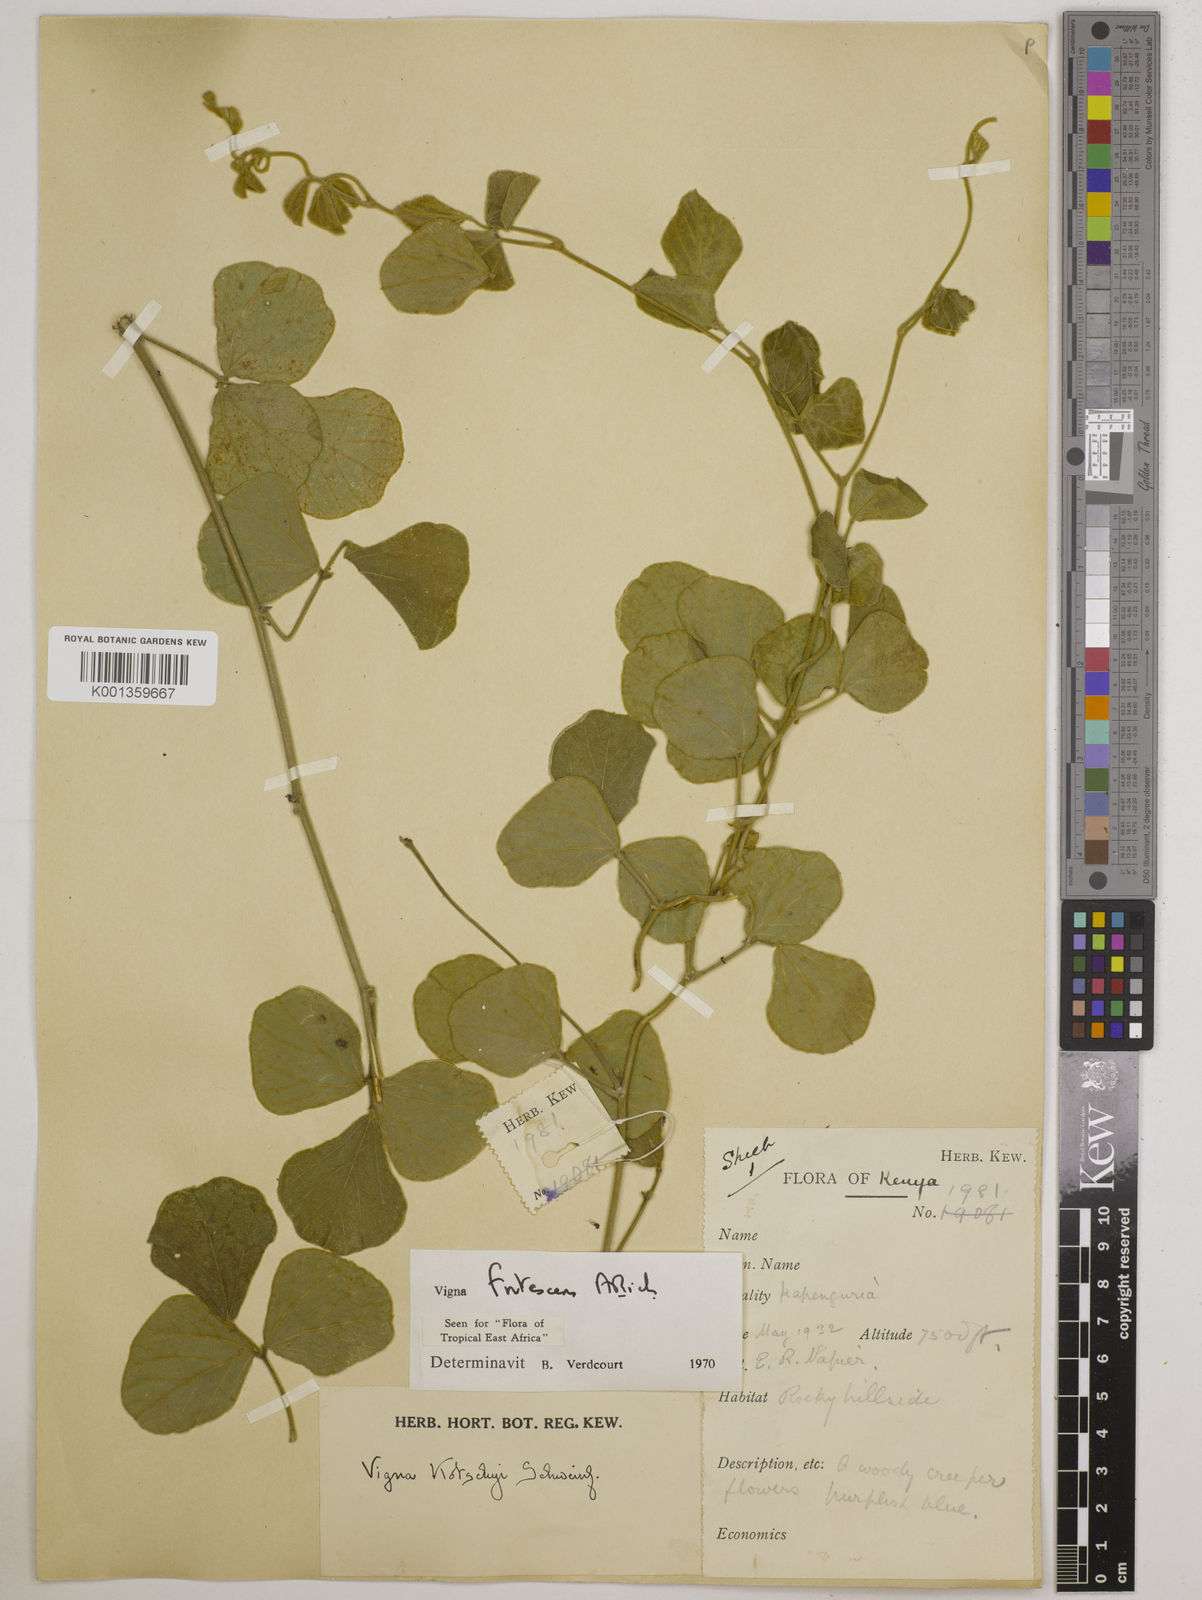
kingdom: Plantae
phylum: Tracheophyta
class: Magnoliopsida
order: Fabales
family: Fabaceae
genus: Vigna
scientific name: Vigna frutescens
